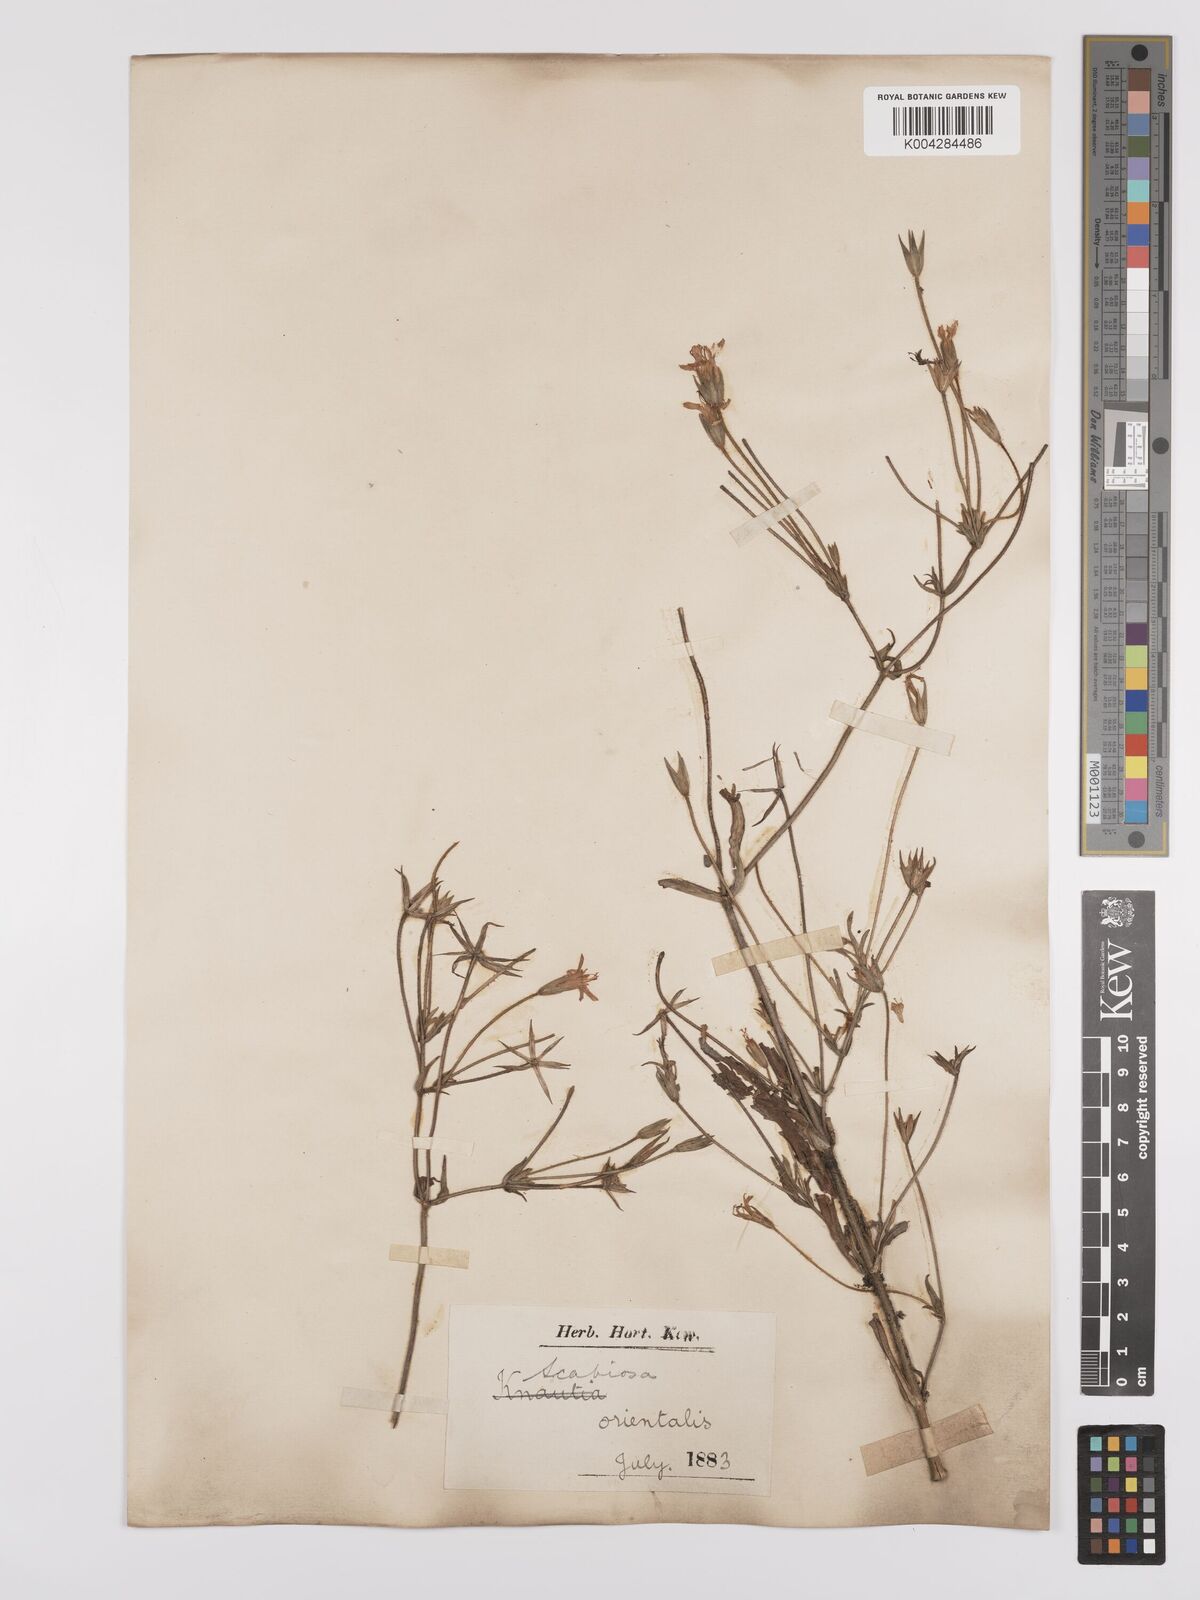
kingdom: Plantae
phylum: Tracheophyta
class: Magnoliopsida
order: Dipsacales
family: Caprifoliaceae
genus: Knautia
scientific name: Knautia orientalis
